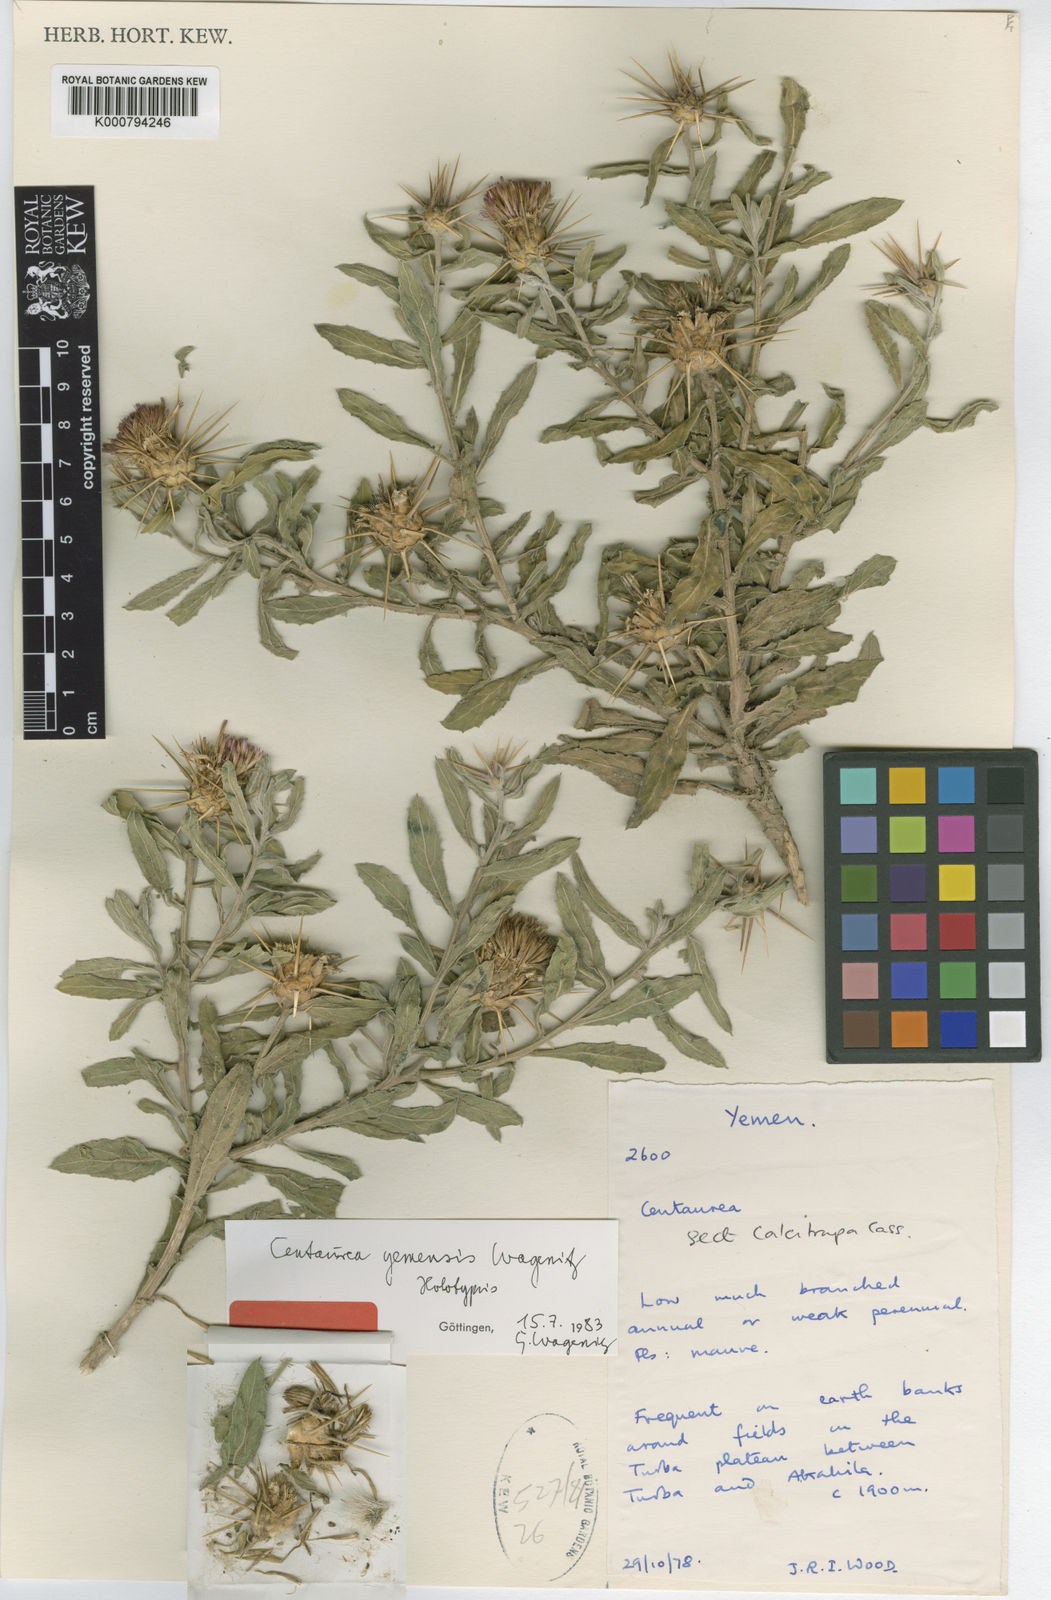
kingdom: Plantae
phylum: Tracheophyta
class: Magnoliopsida
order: Asterales
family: Asteraceae
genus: Centaurea
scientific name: Centaurea yemensis
